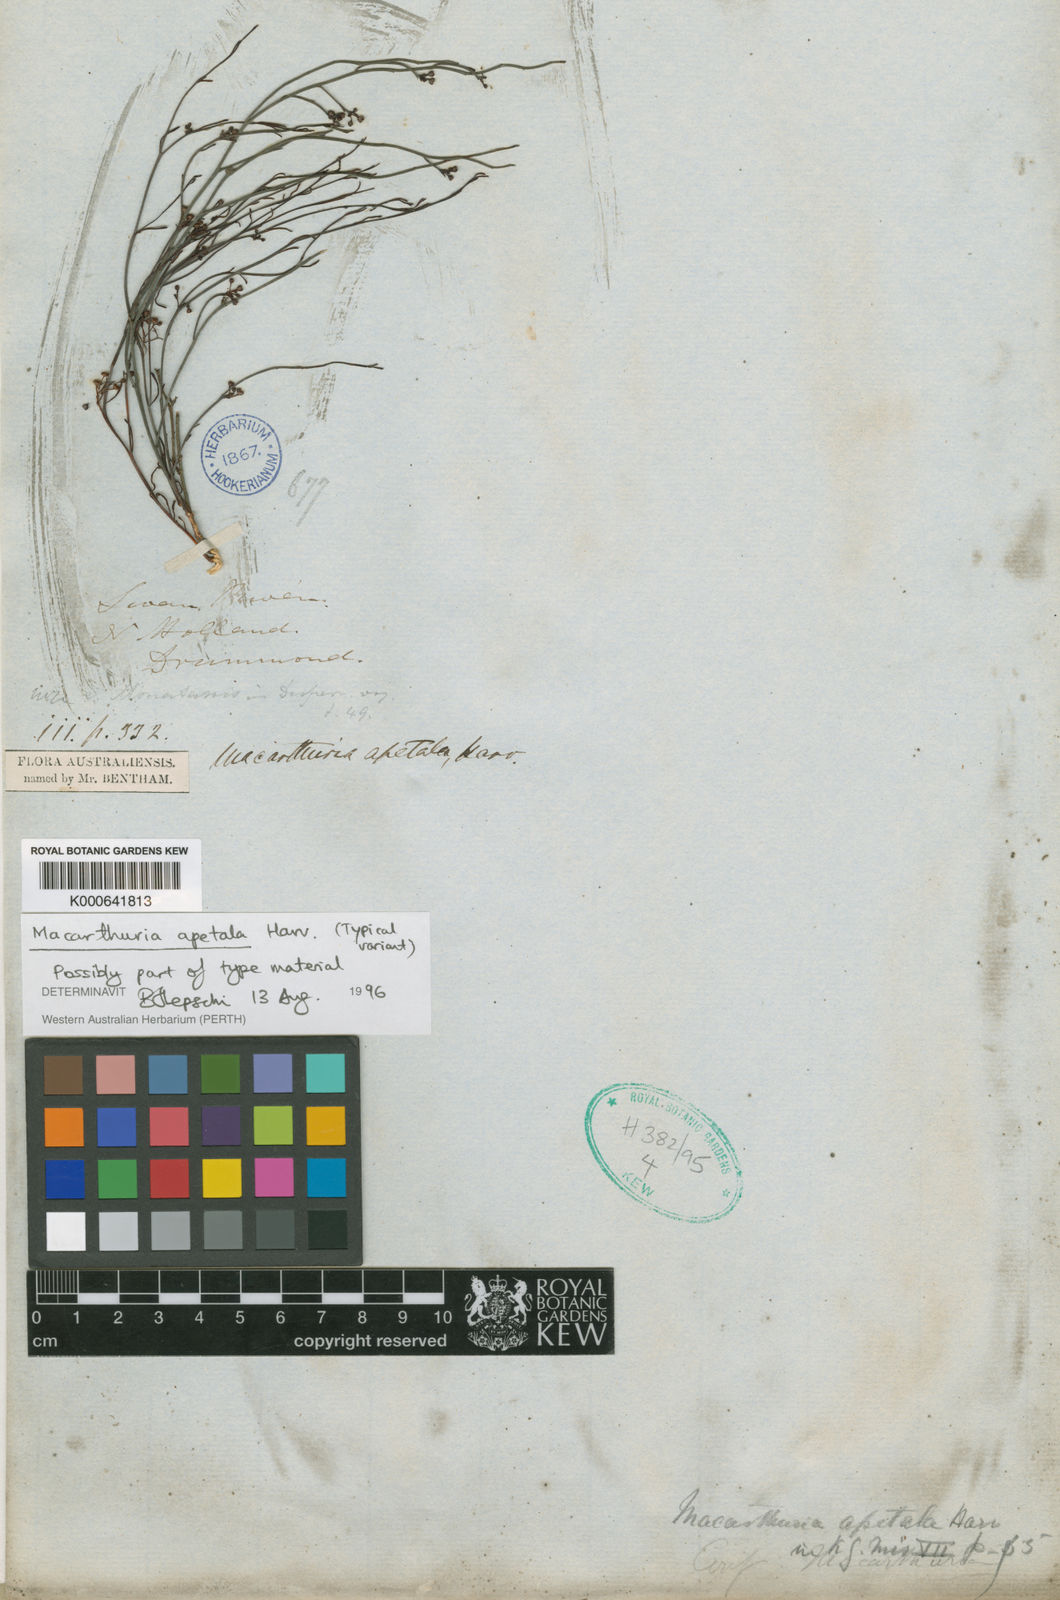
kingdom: Plantae
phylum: Tracheophyta
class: Magnoliopsida
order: Caryophyllales
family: Macarthuriaceae
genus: Macarthuria
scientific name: Macarthuria apetala
